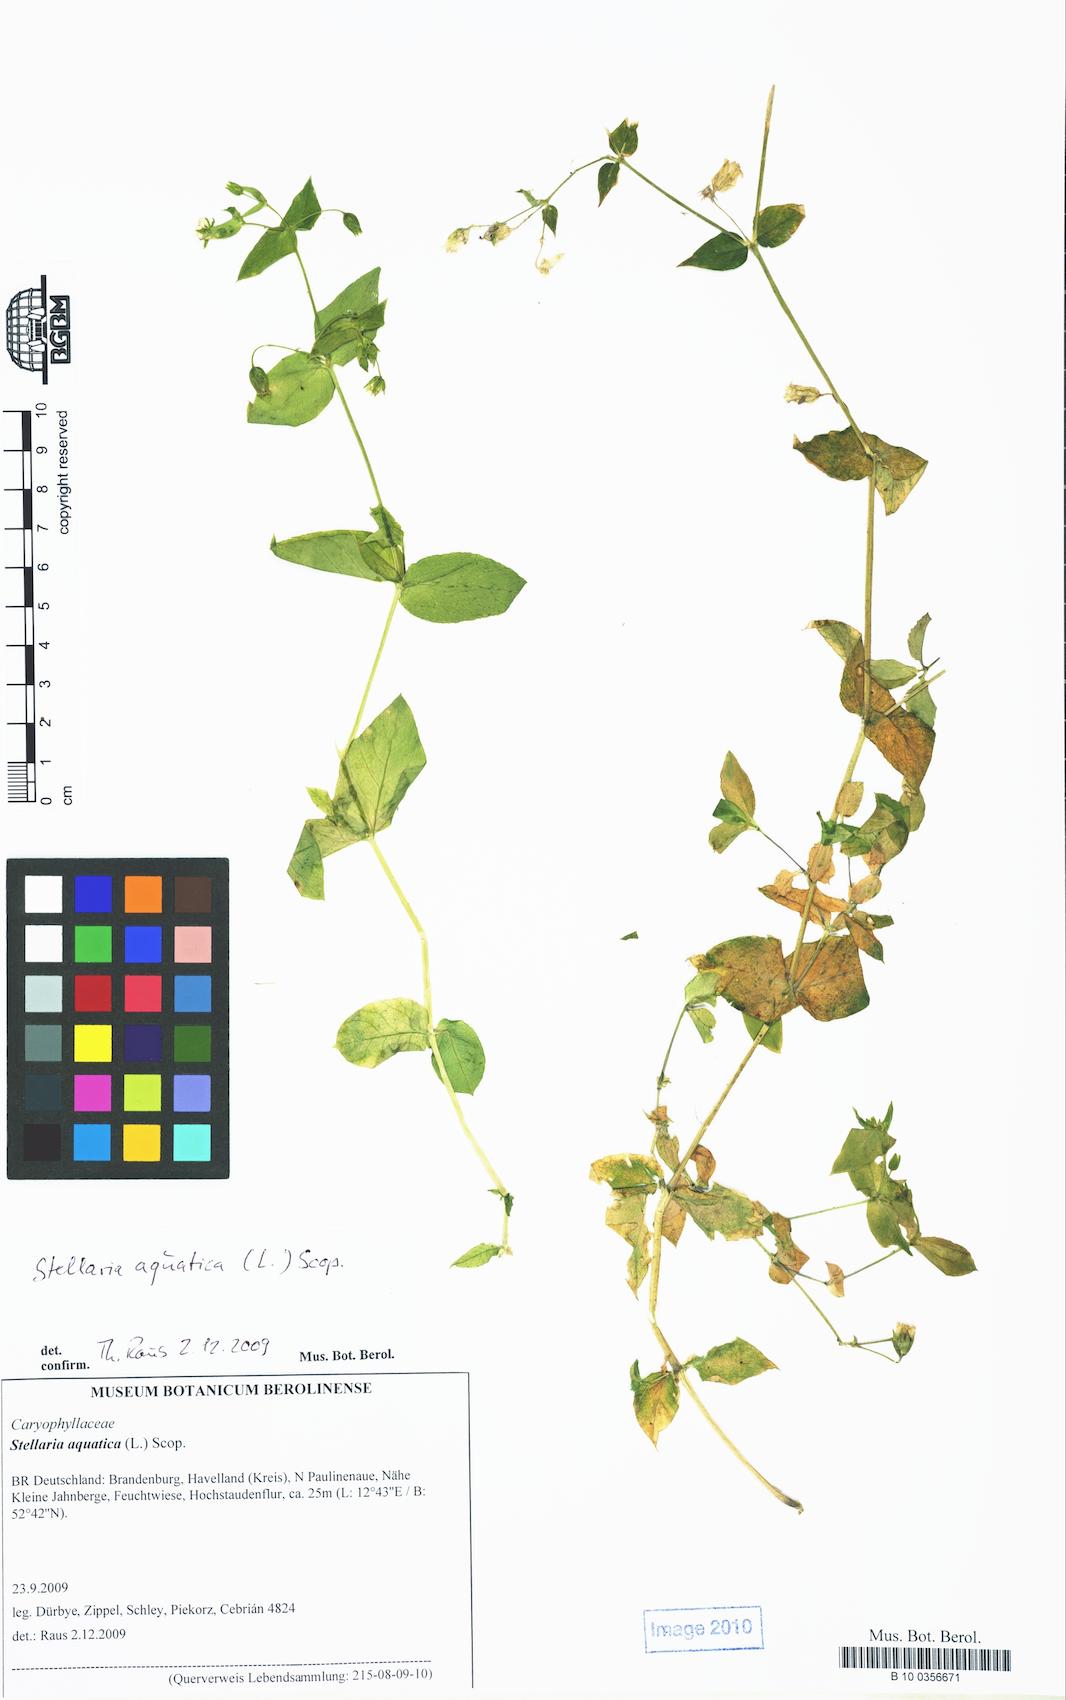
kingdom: Plantae
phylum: Tracheophyta
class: Magnoliopsida
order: Caryophyllales
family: Caryophyllaceae
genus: Stellaria
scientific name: Stellaria aquatica
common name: Water chickweed
